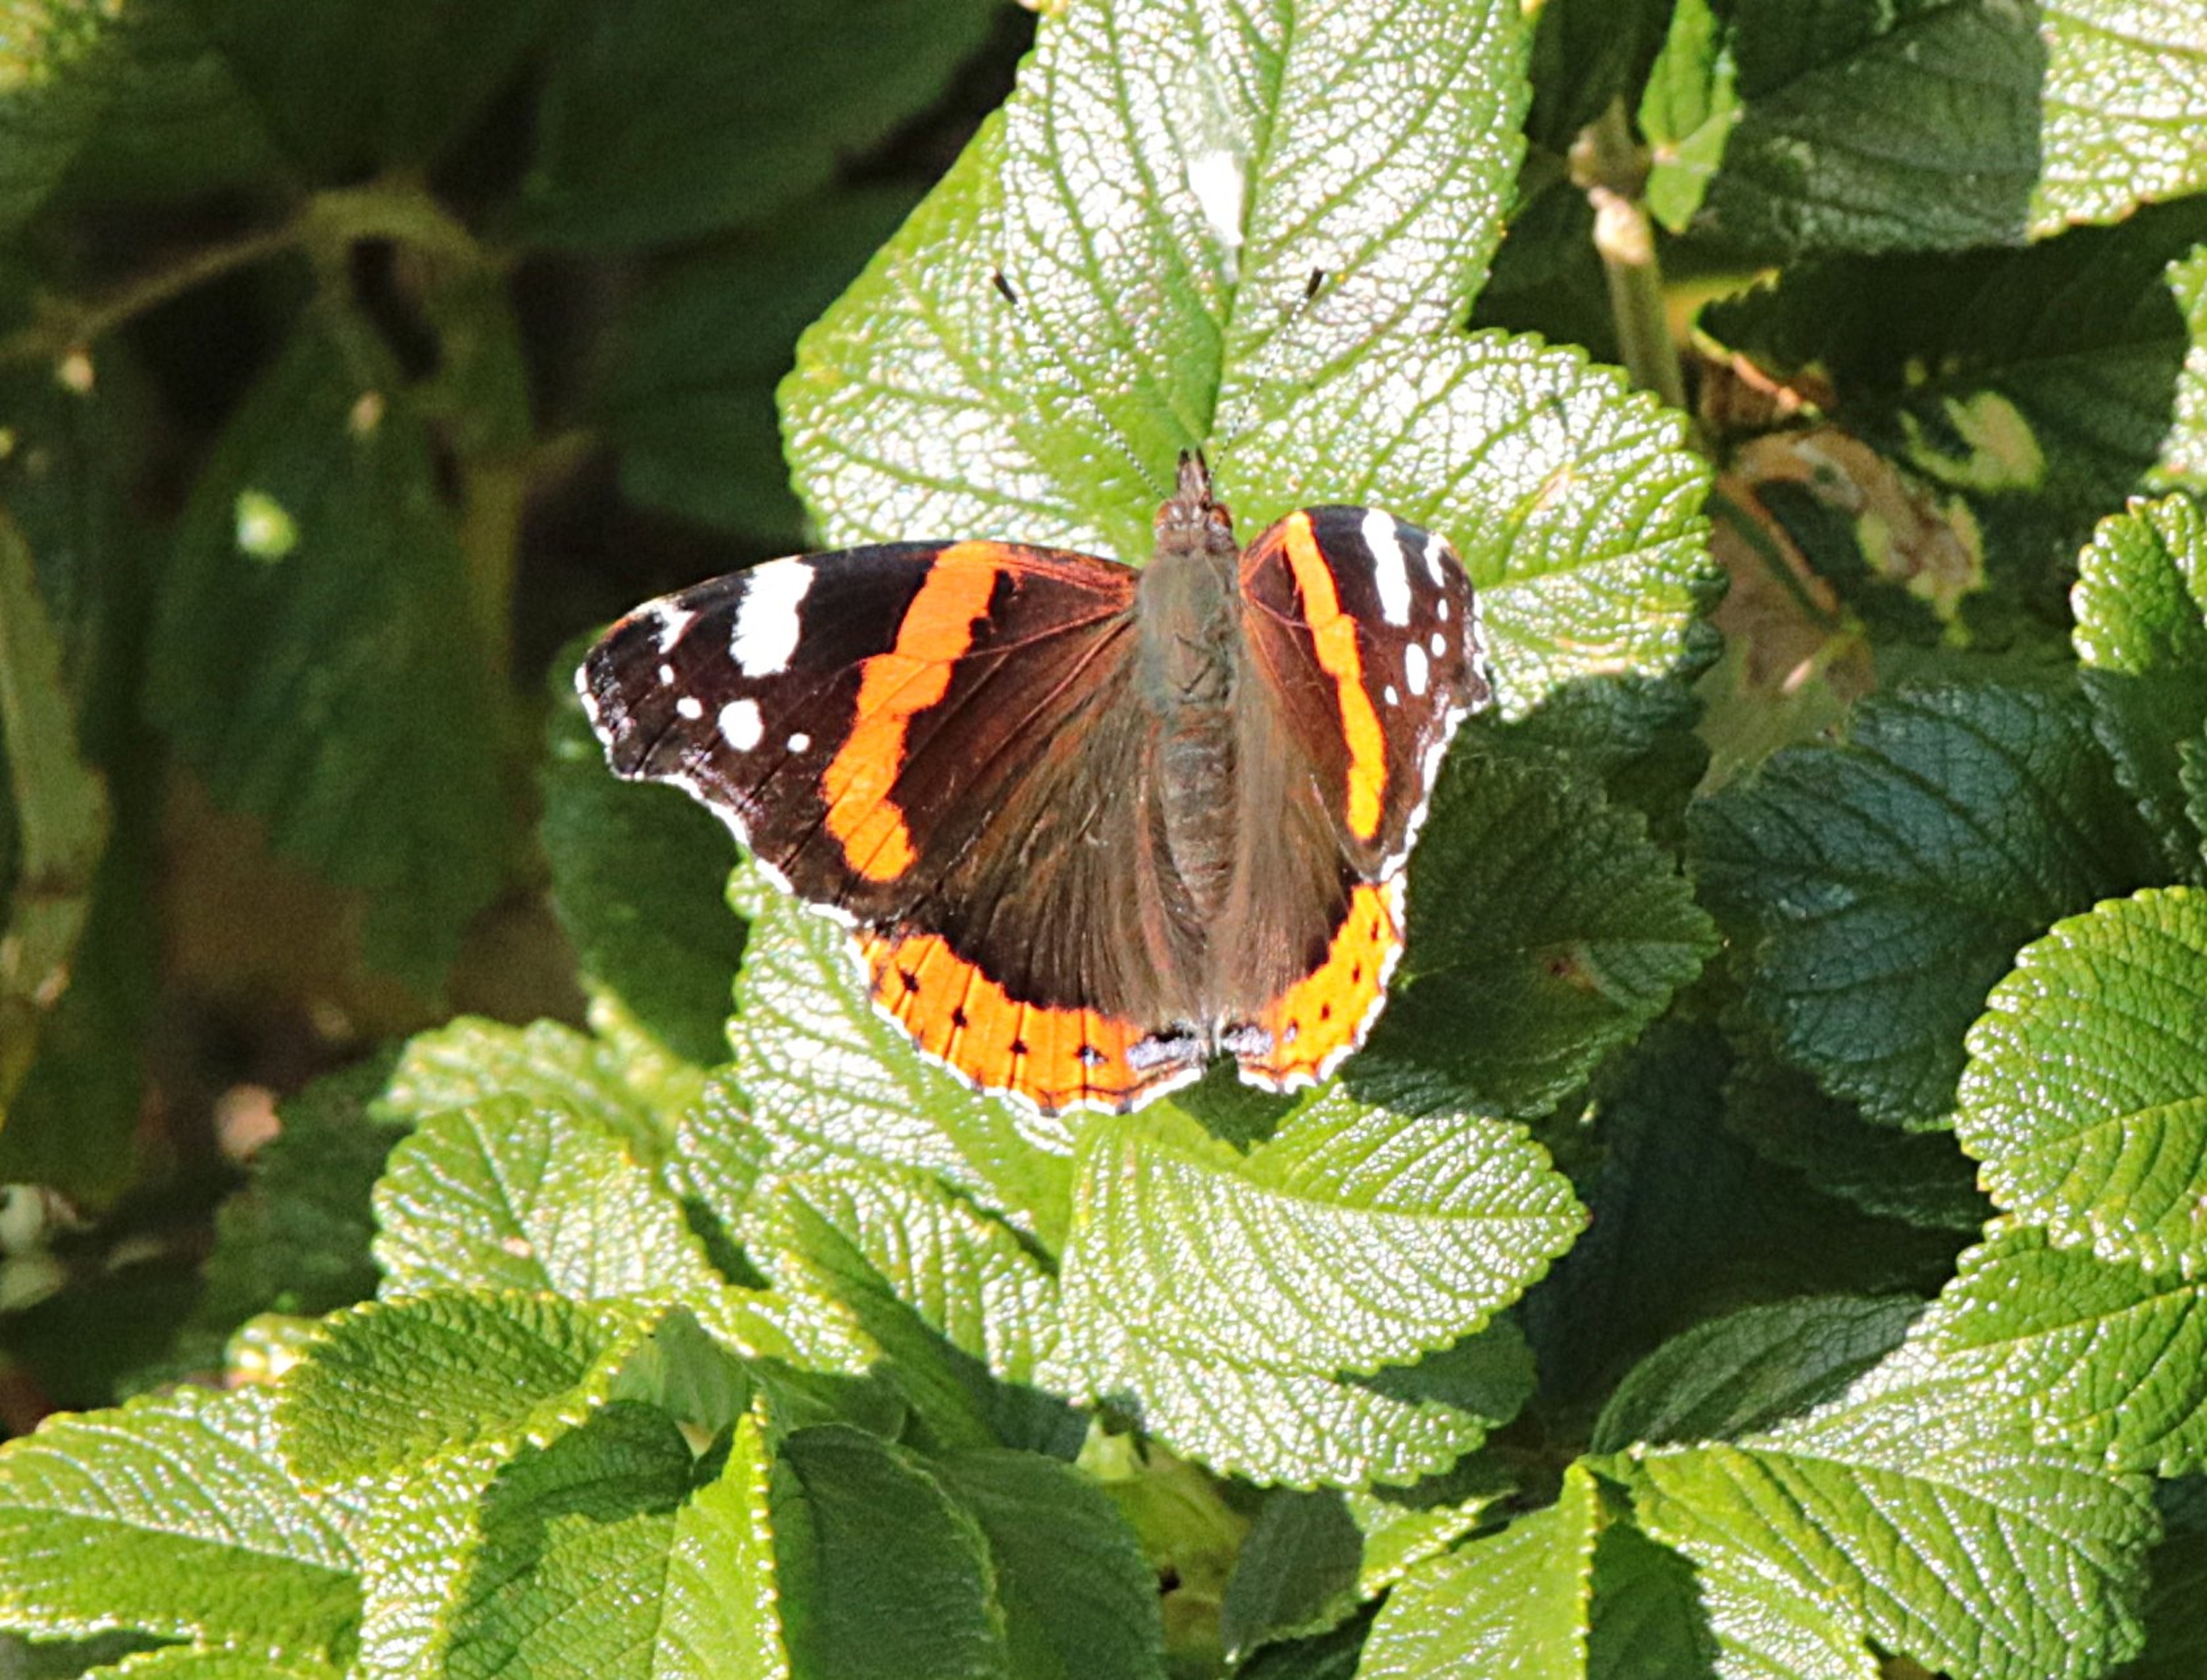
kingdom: Animalia
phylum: Arthropoda
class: Insecta
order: Lepidoptera
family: Nymphalidae
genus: Vanessa
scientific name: Vanessa atalanta
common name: Admiral
